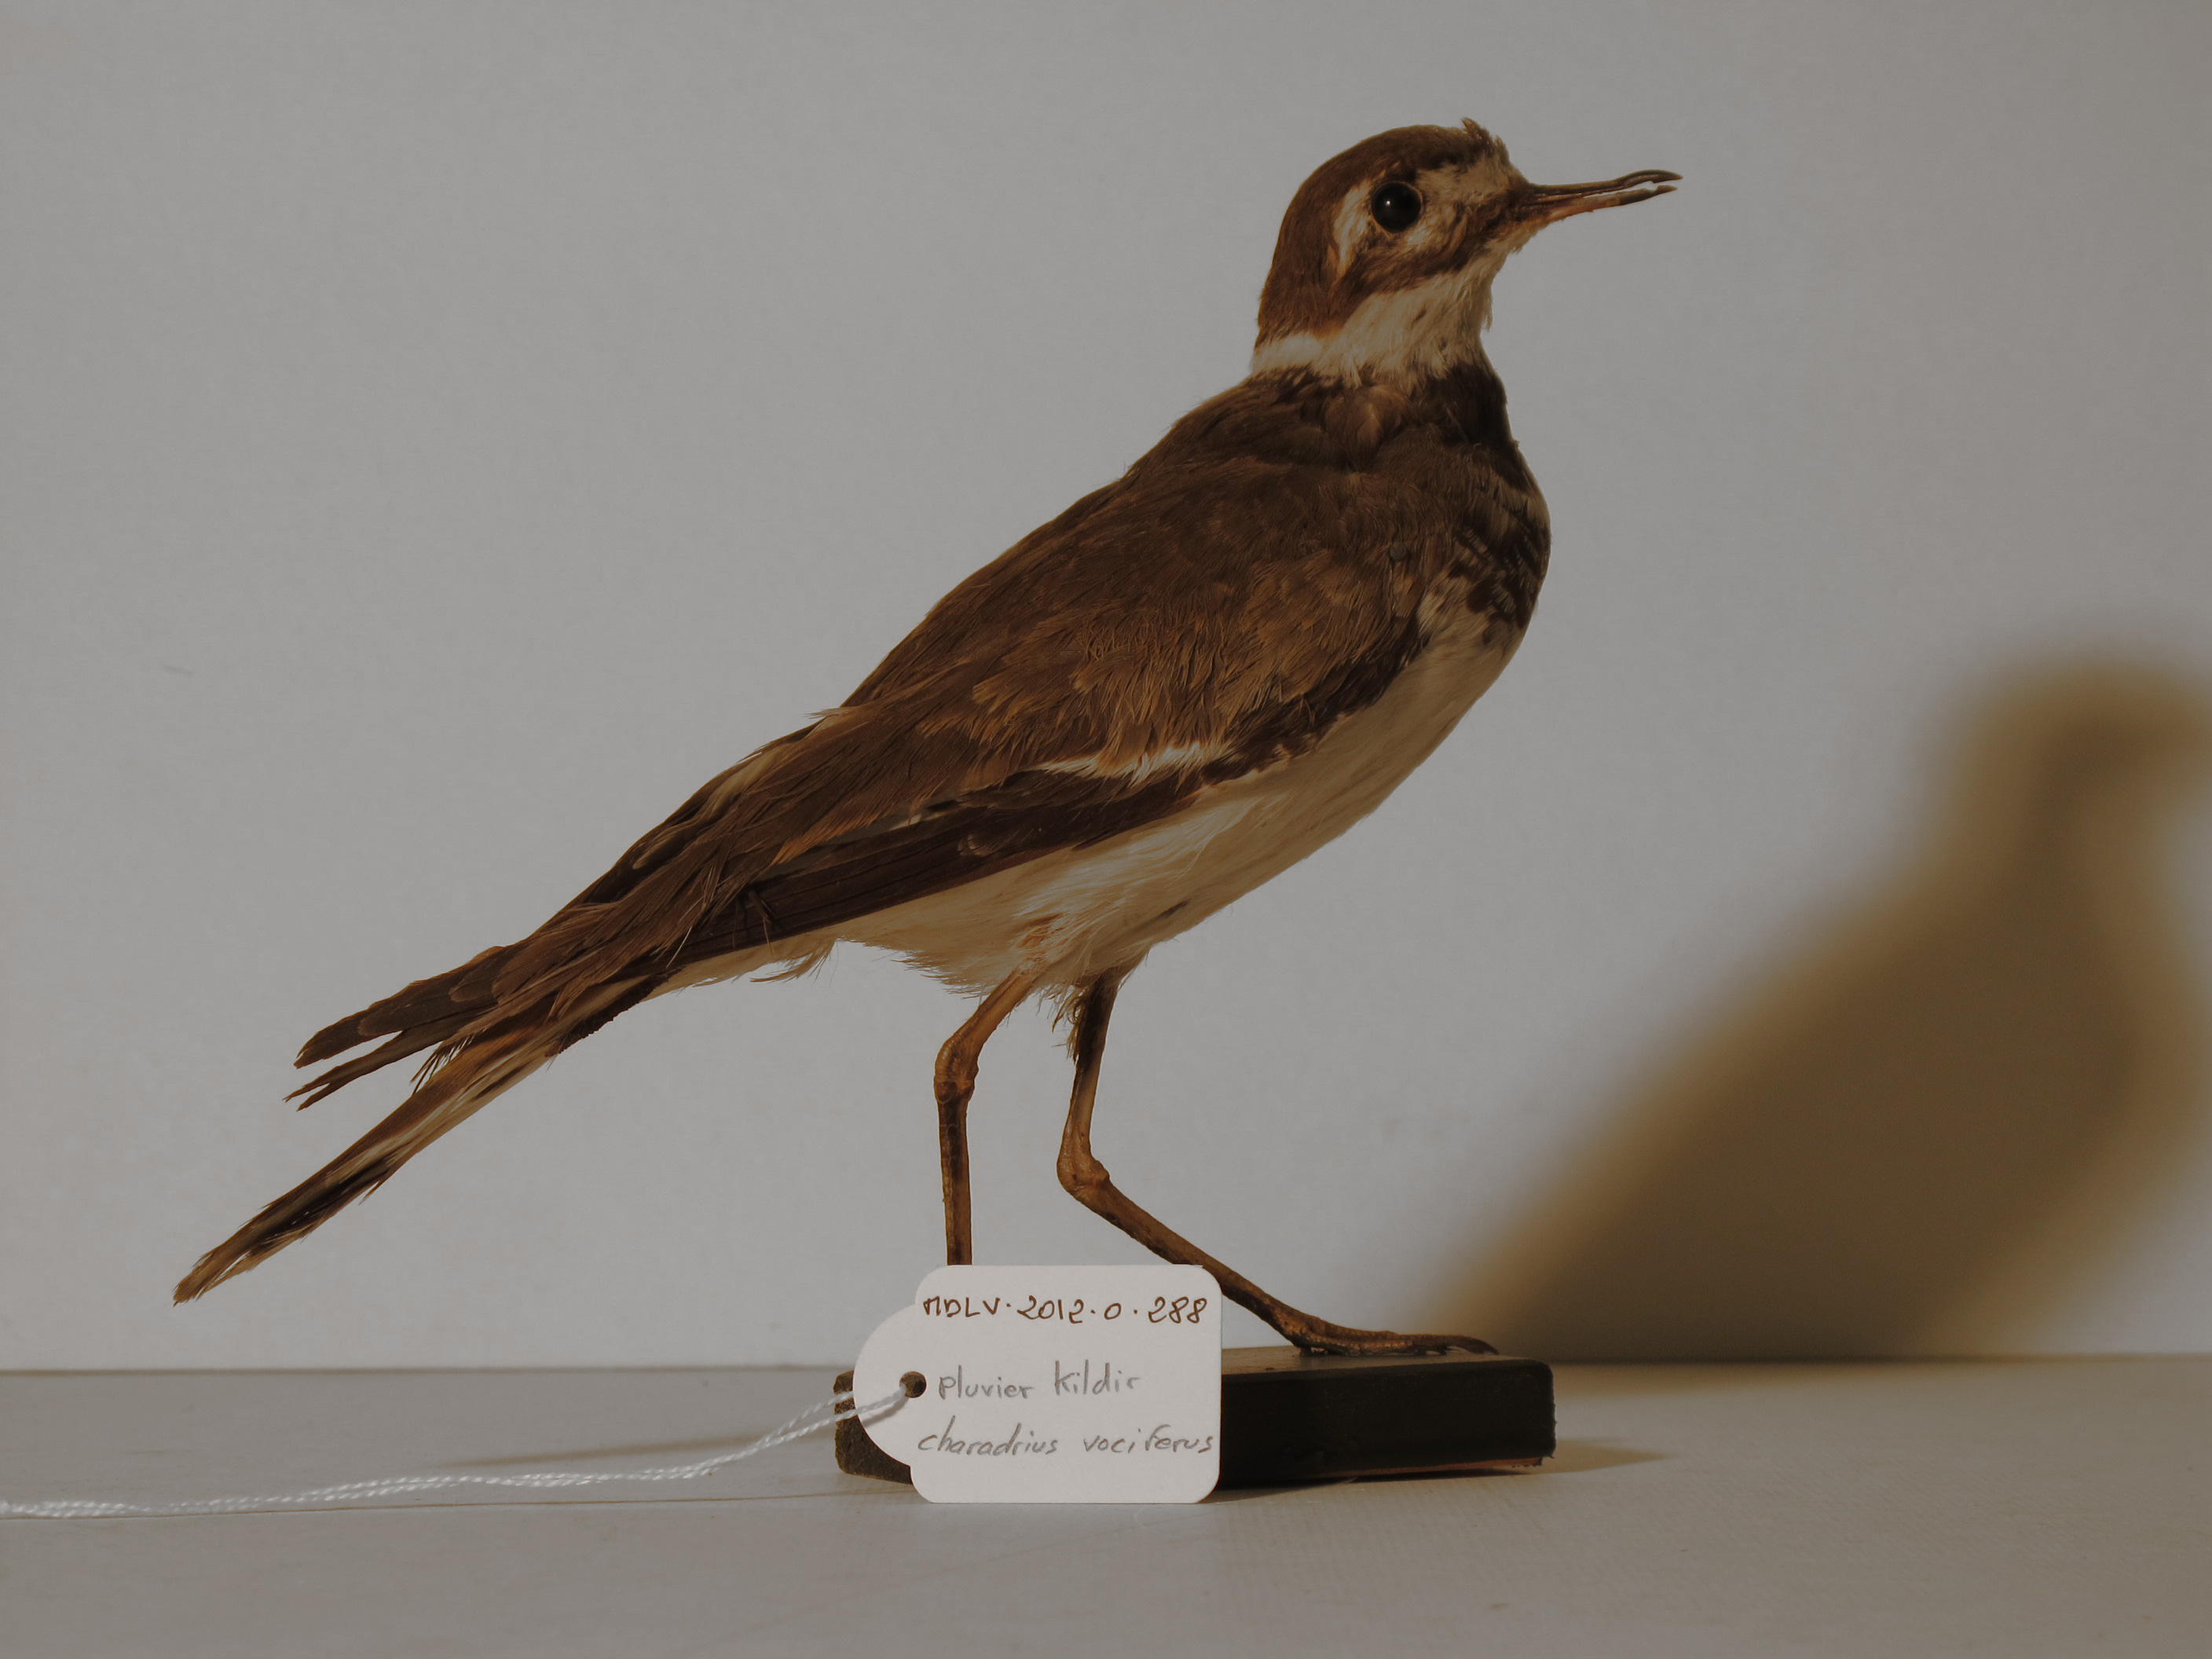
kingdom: Animalia
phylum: Chordata
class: Aves
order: Charadriiformes
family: Charadriidae
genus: Charadrius
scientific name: Charadrius vociferus
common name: Killdeer
